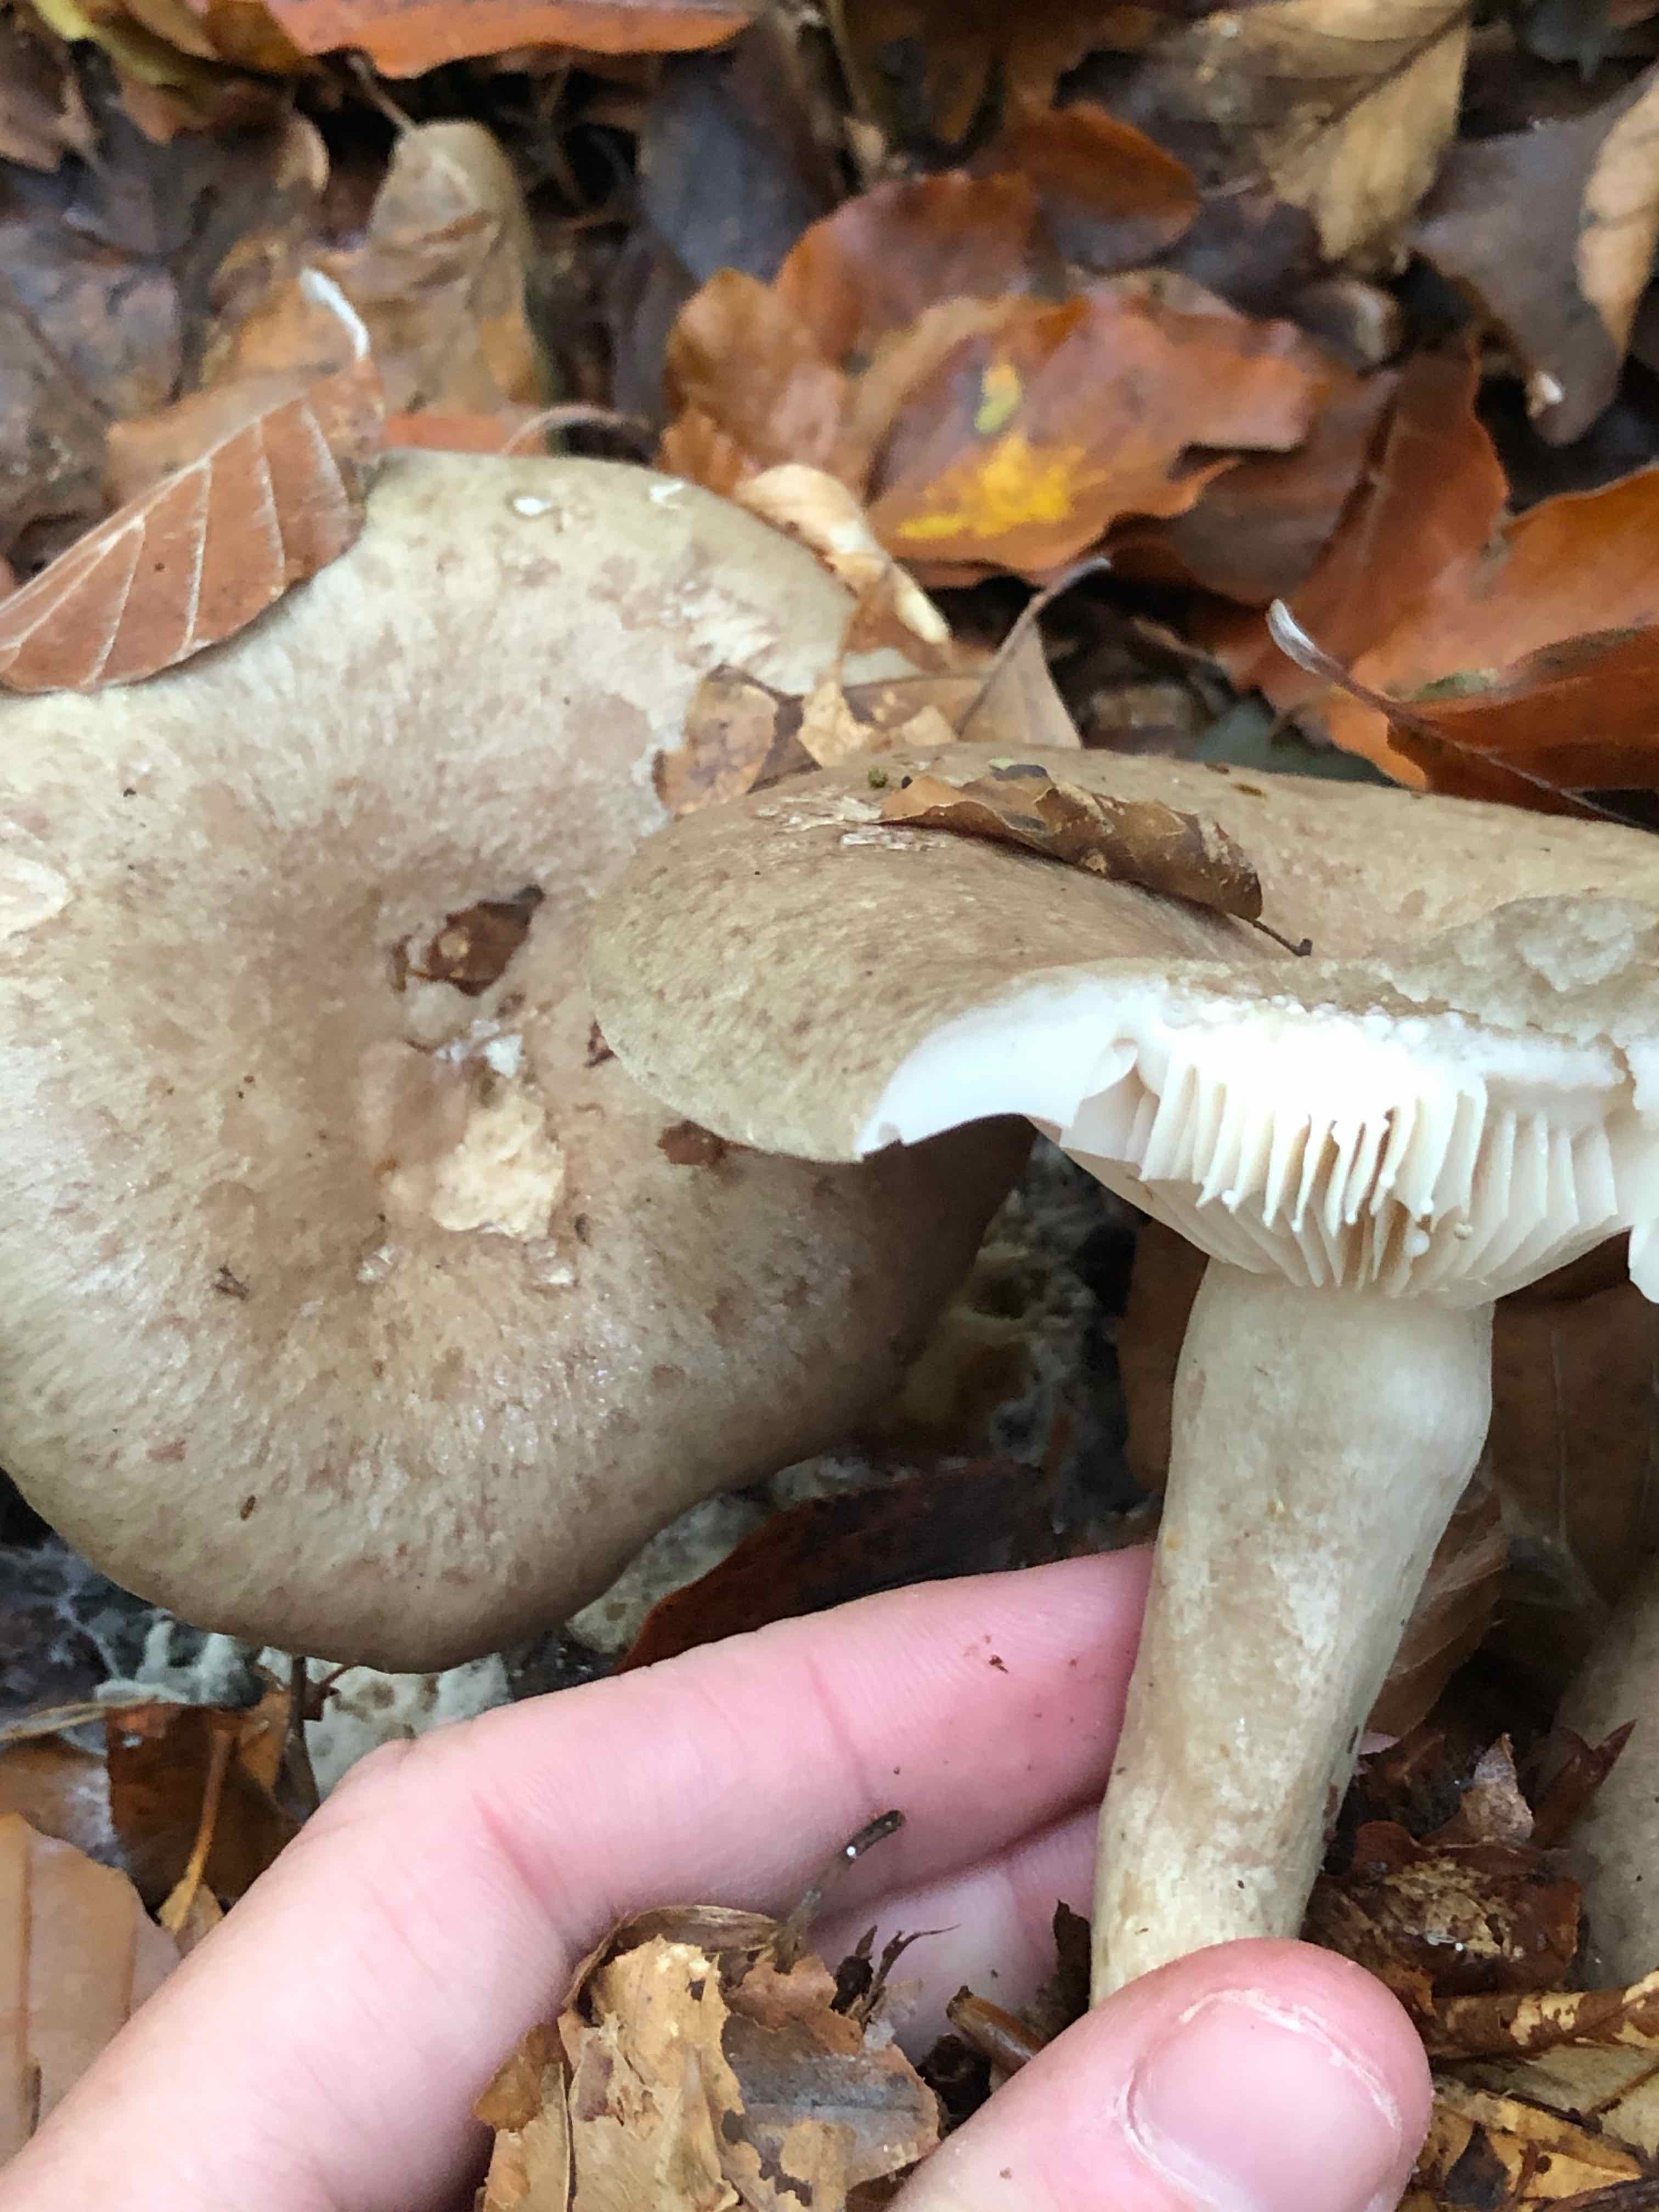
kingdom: Fungi
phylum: Basidiomycota
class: Agaricomycetes
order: Russulales
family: Russulaceae
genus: Lactarius
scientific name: Lactarius blennius
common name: dråbeplettet mælkehat
